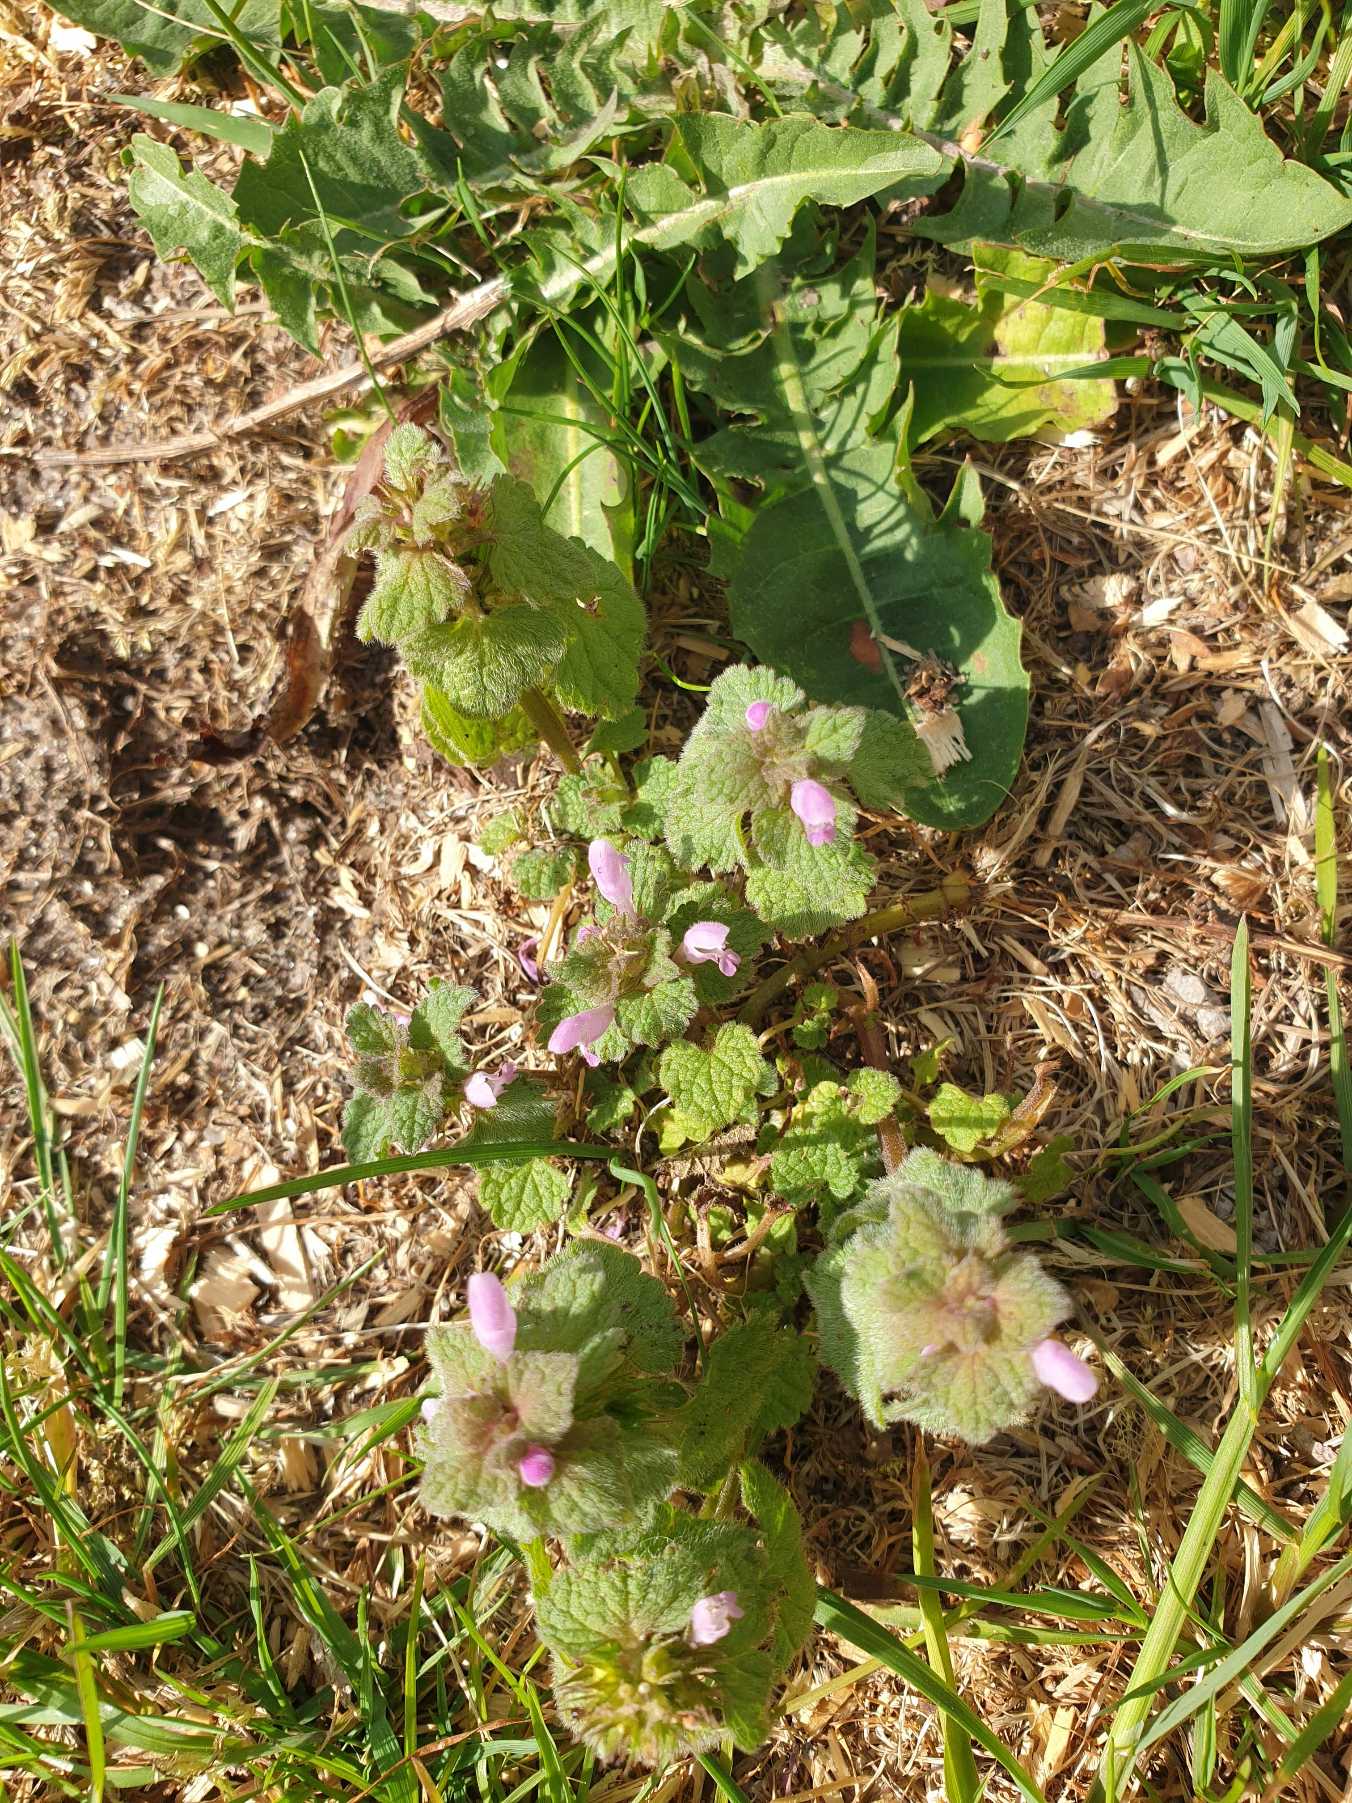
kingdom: Plantae
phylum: Tracheophyta
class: Magnoliopsida
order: Lamiales
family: Lamiaceae
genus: Lamium
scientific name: Lamium purpureum
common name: Rød tvetand
